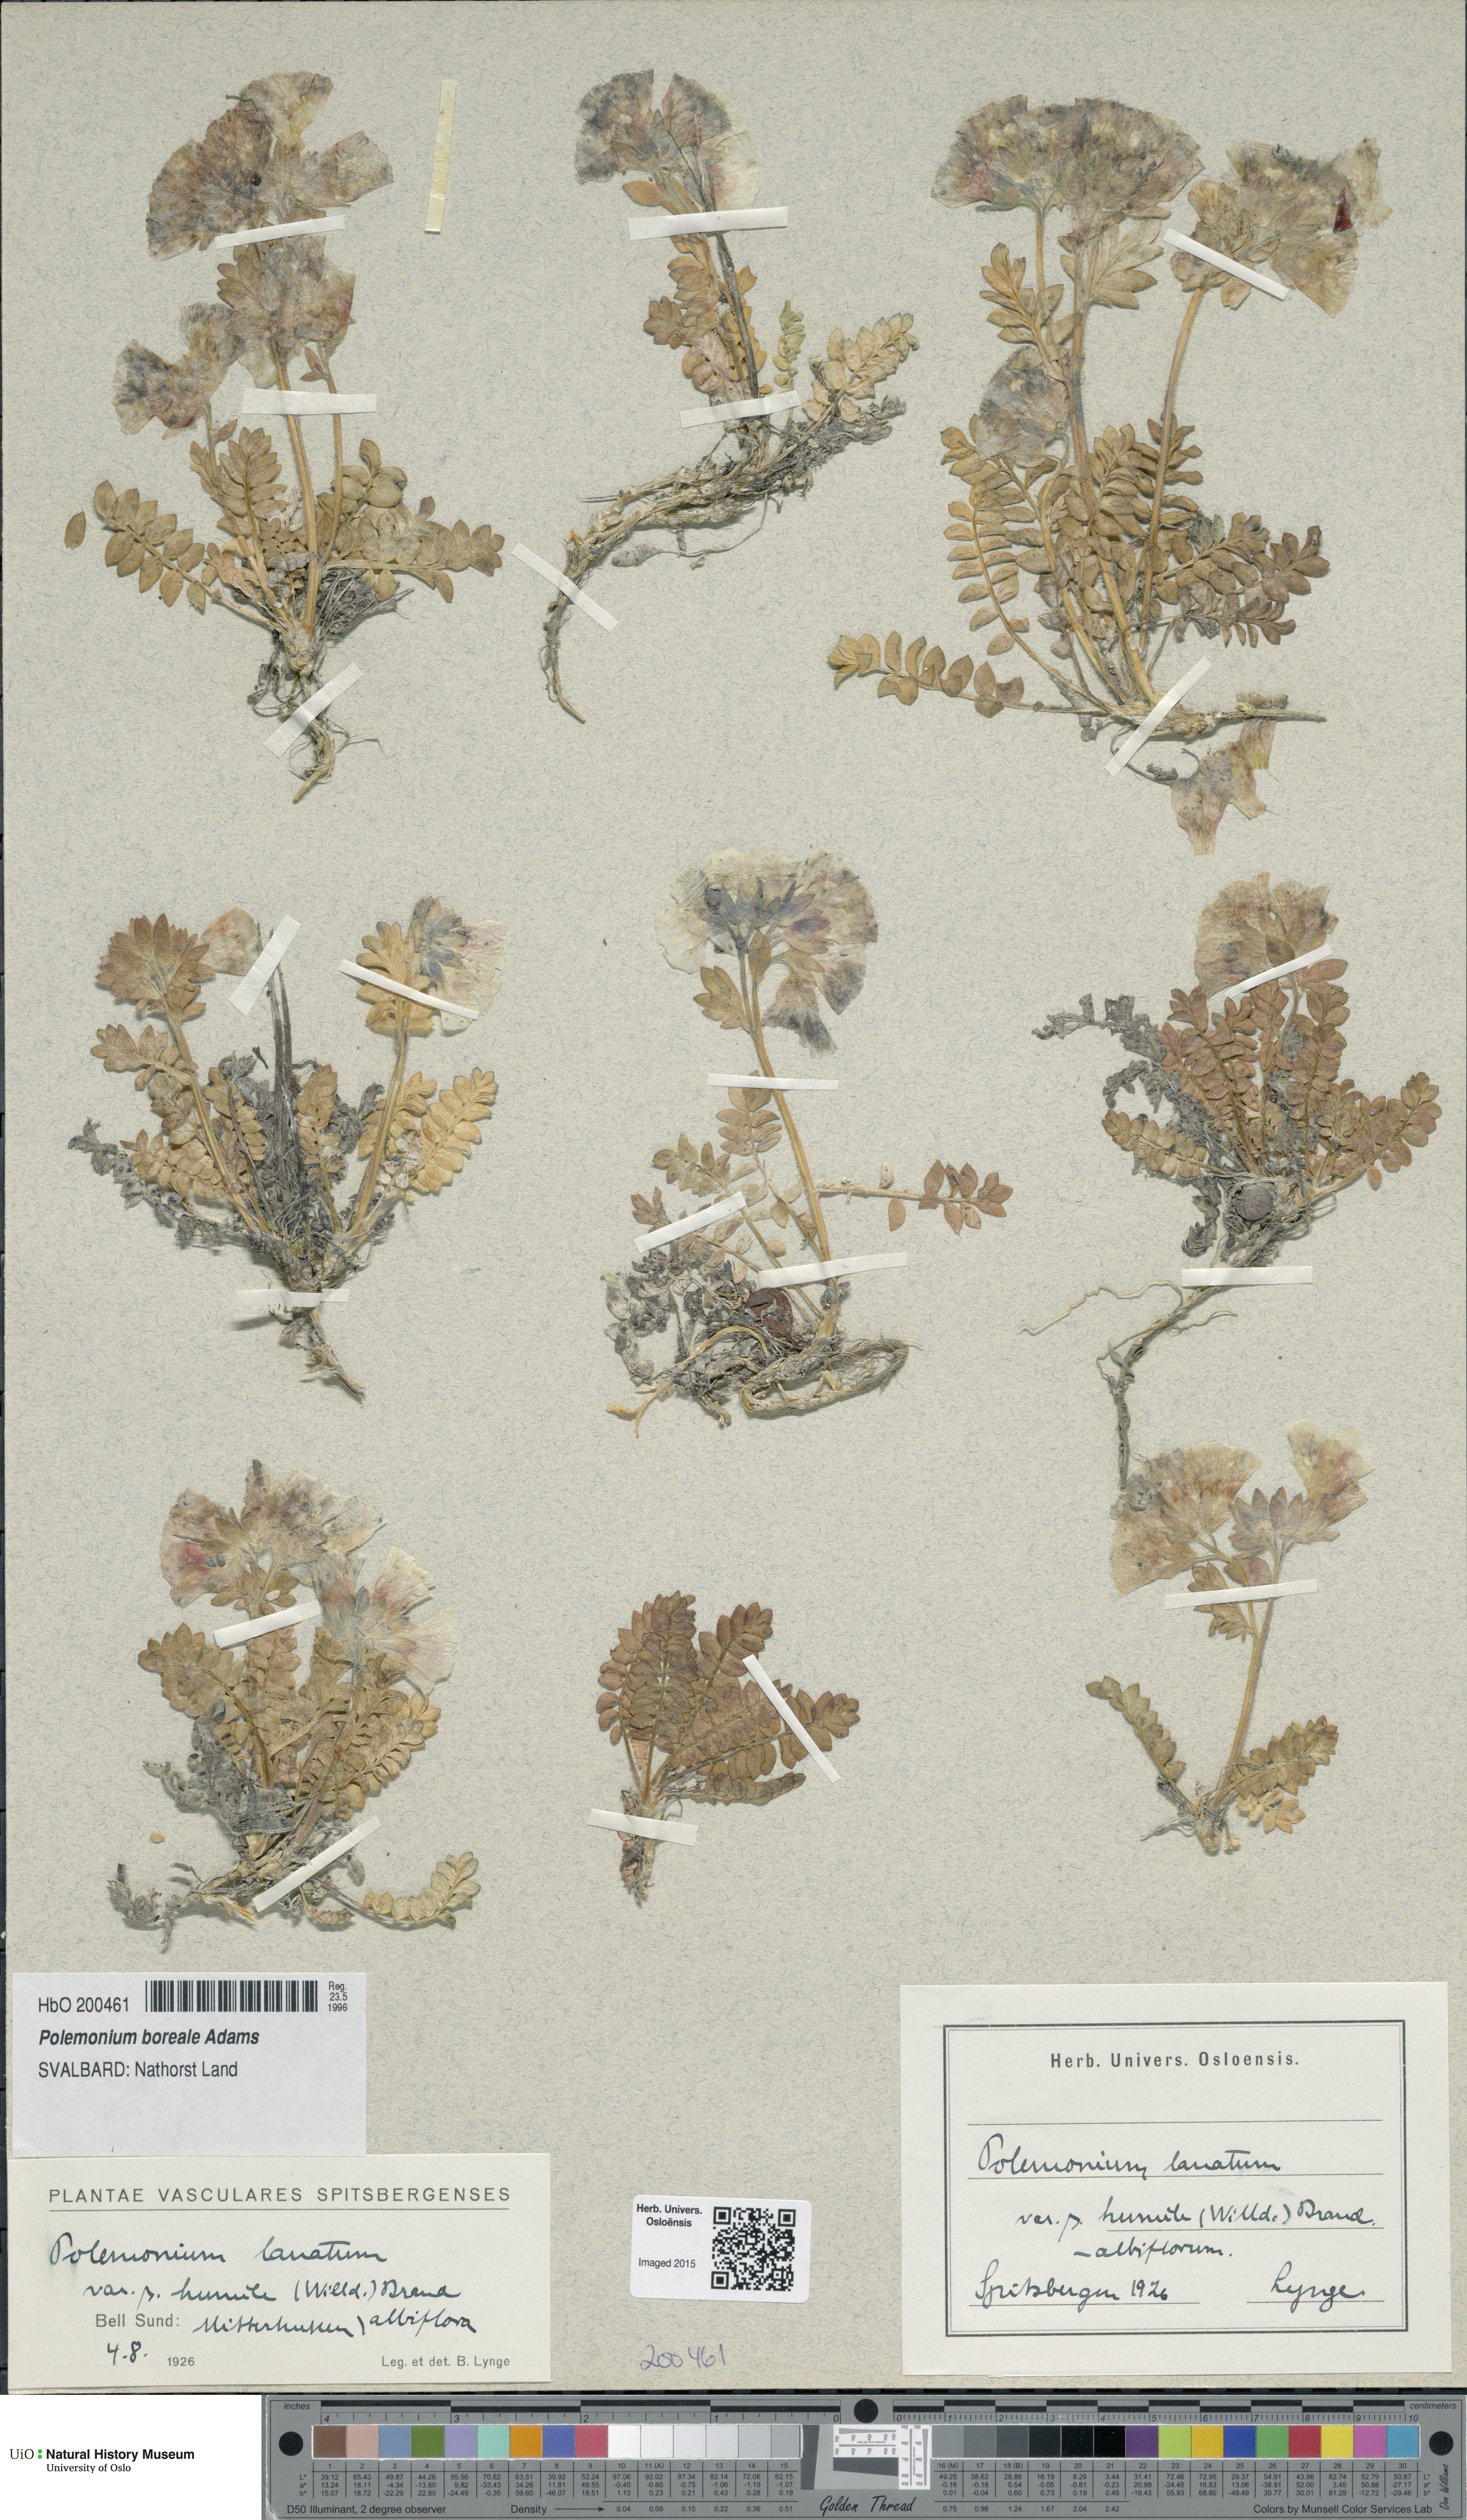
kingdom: Plantae
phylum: Tracheophyta
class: Magnoliopsida
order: Ericales
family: Polemoniaceae
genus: Polemonium
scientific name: Polemonium boreale
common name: Boreal jacob's-ladder
